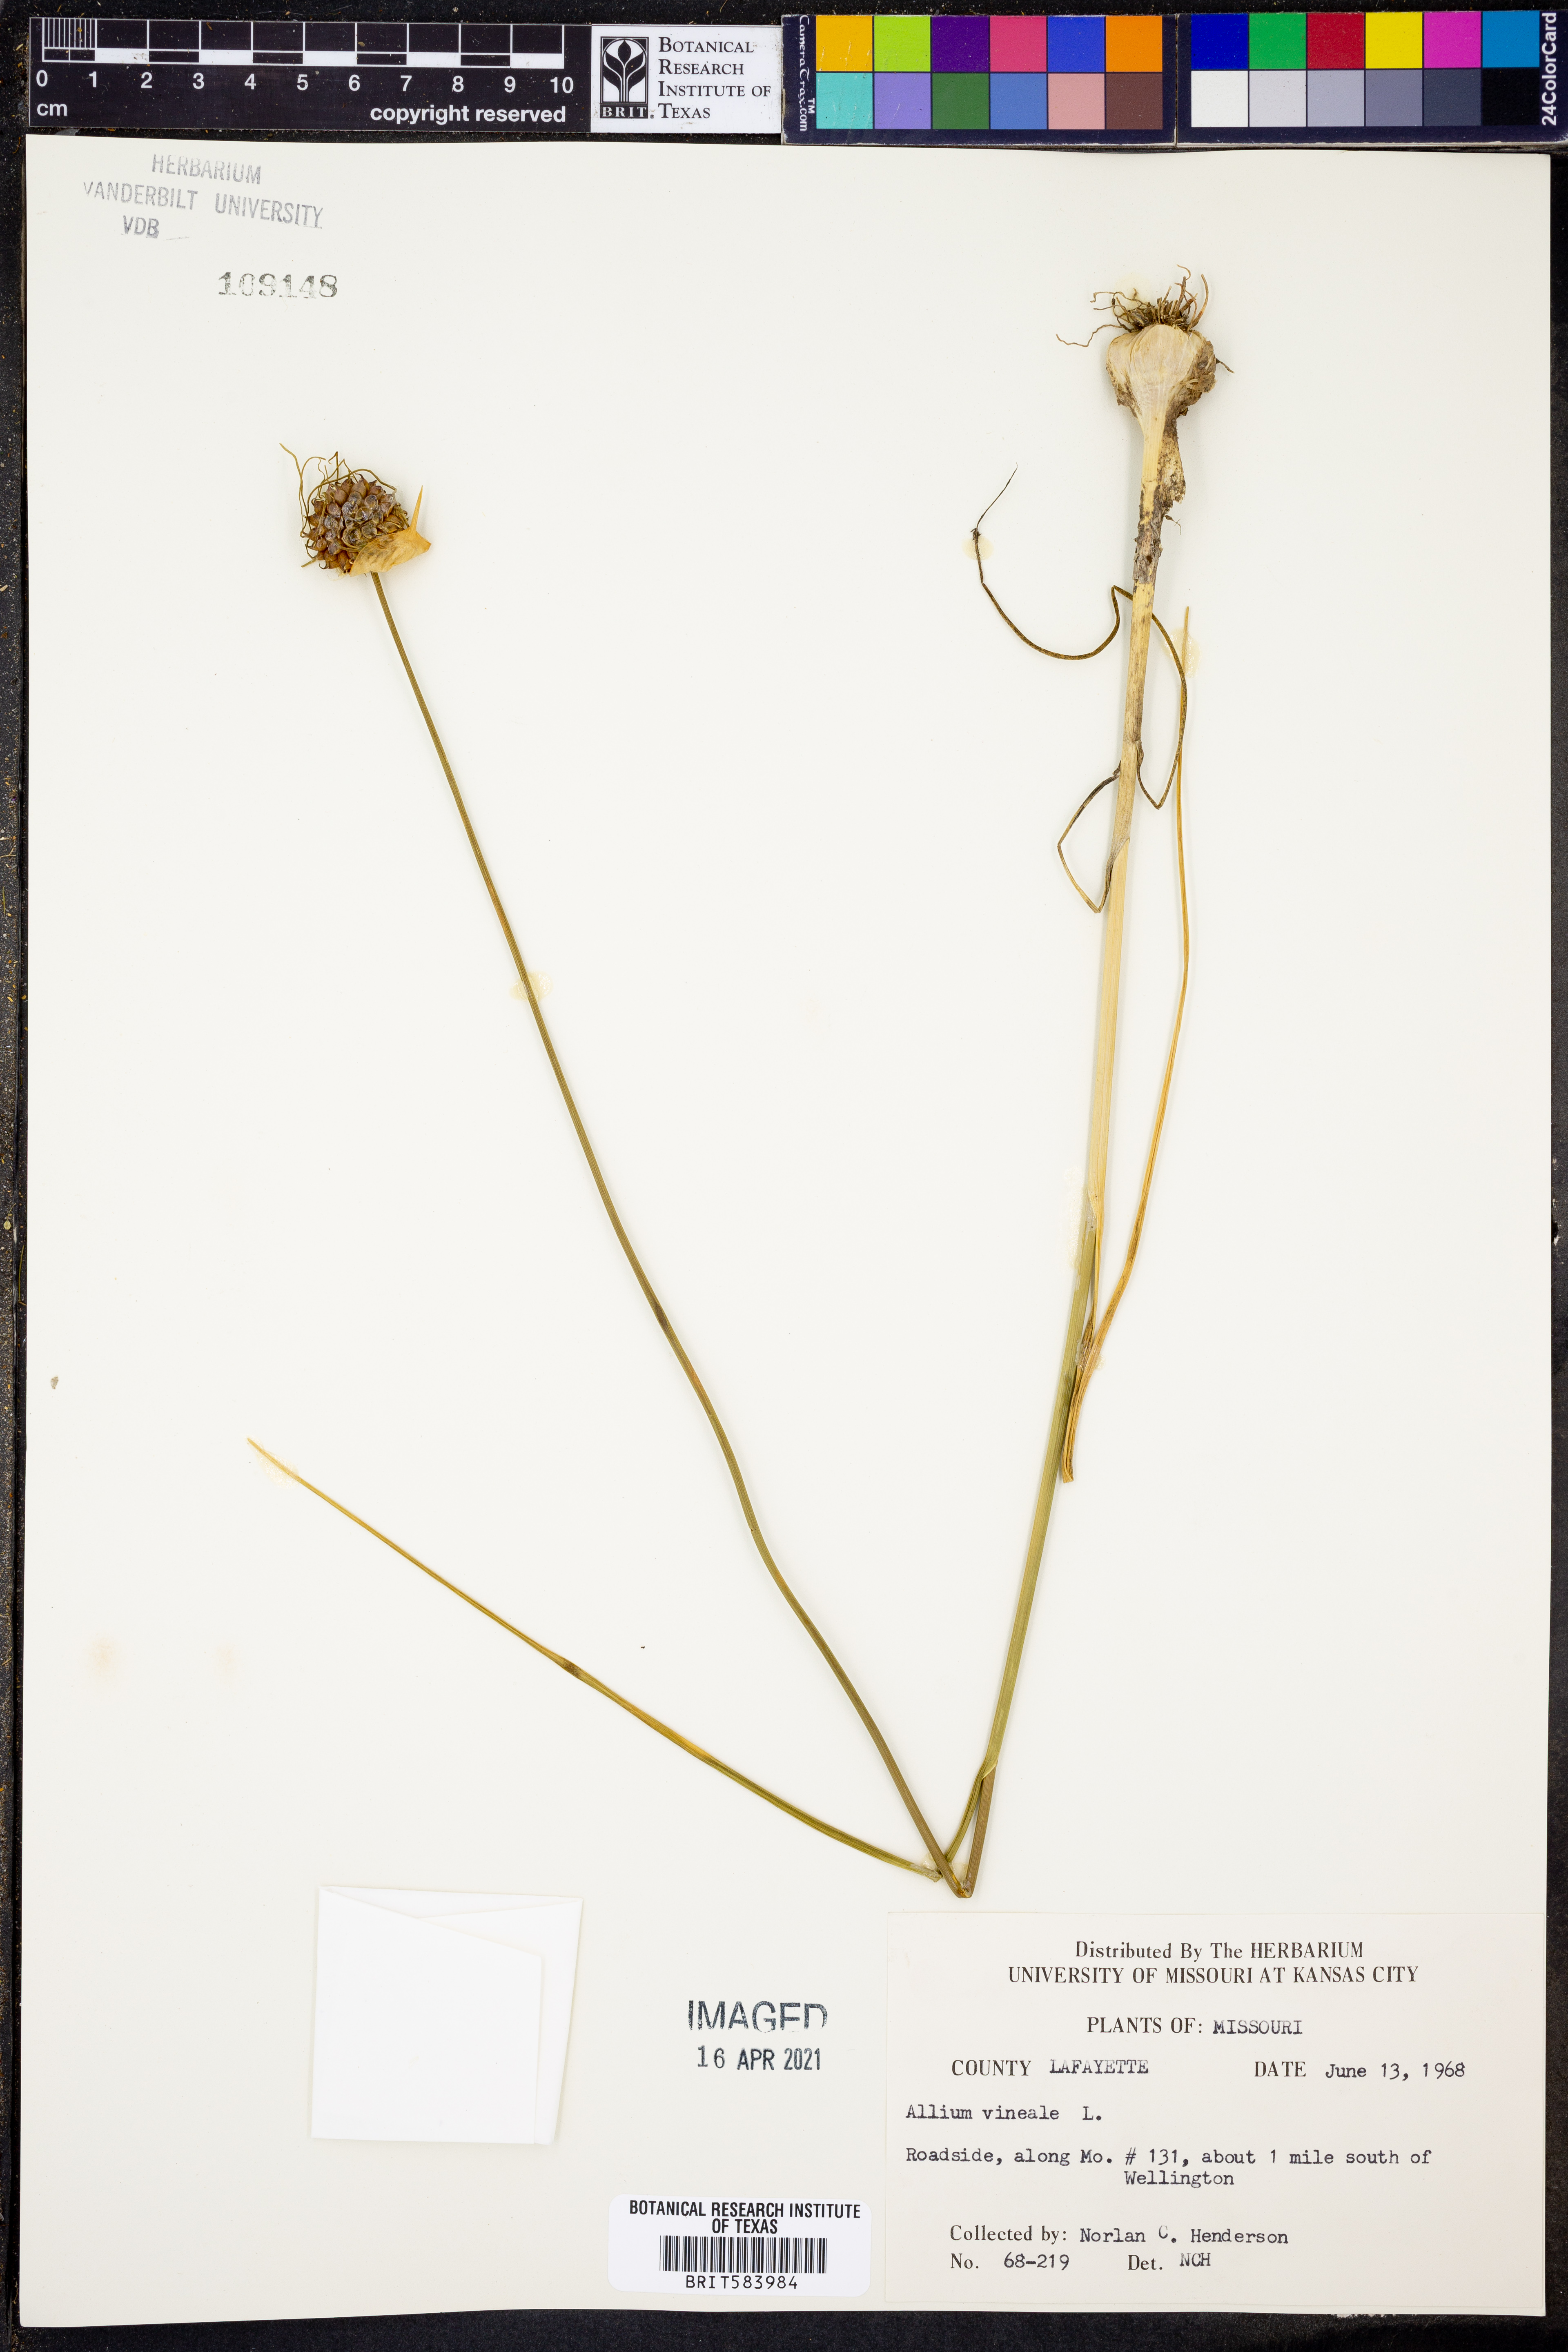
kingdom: Plantae
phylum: Tracheophyta
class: Liliopsida
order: Asparagales
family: Amaryllidaceae
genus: Allium
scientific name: Allium vineale
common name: Crow garlic
